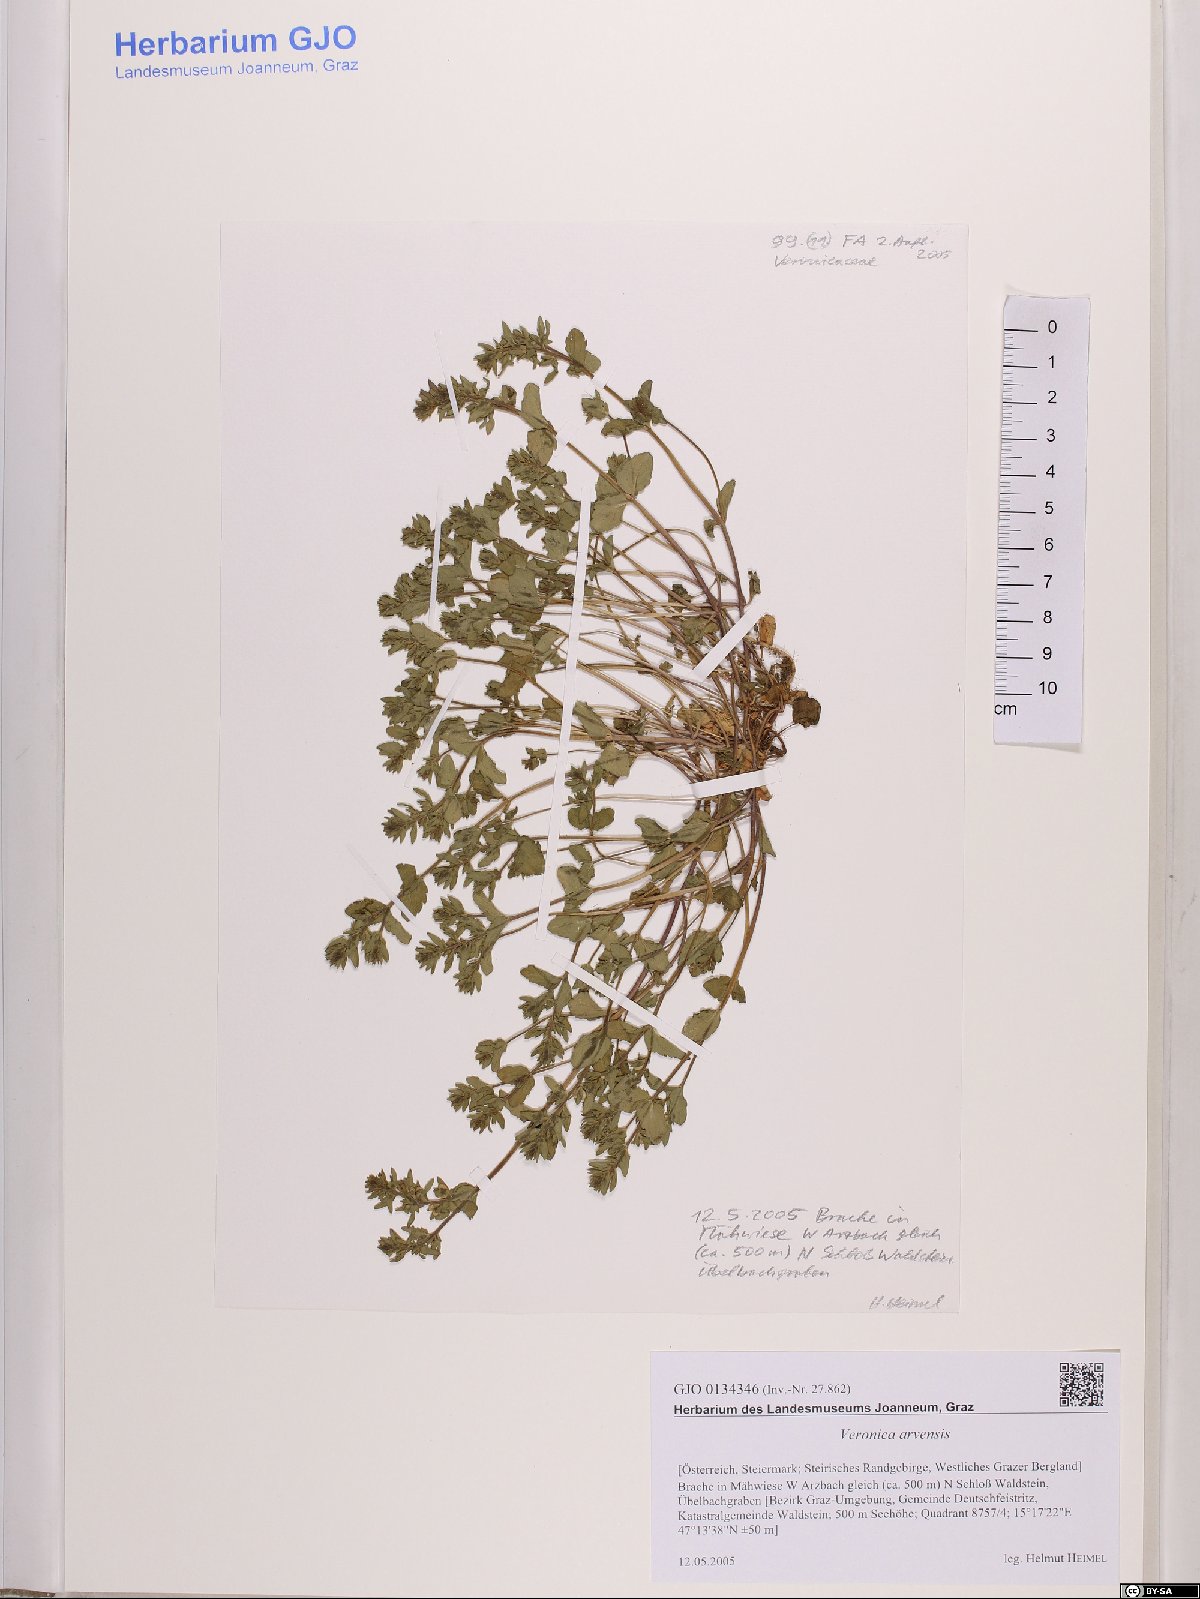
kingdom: Plantae
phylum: Tracheophyta
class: Magnoliopsida
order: Lamiales
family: Plantaginaceae
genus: Veronica
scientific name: Veronica arvensis
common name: Corn speedwell
